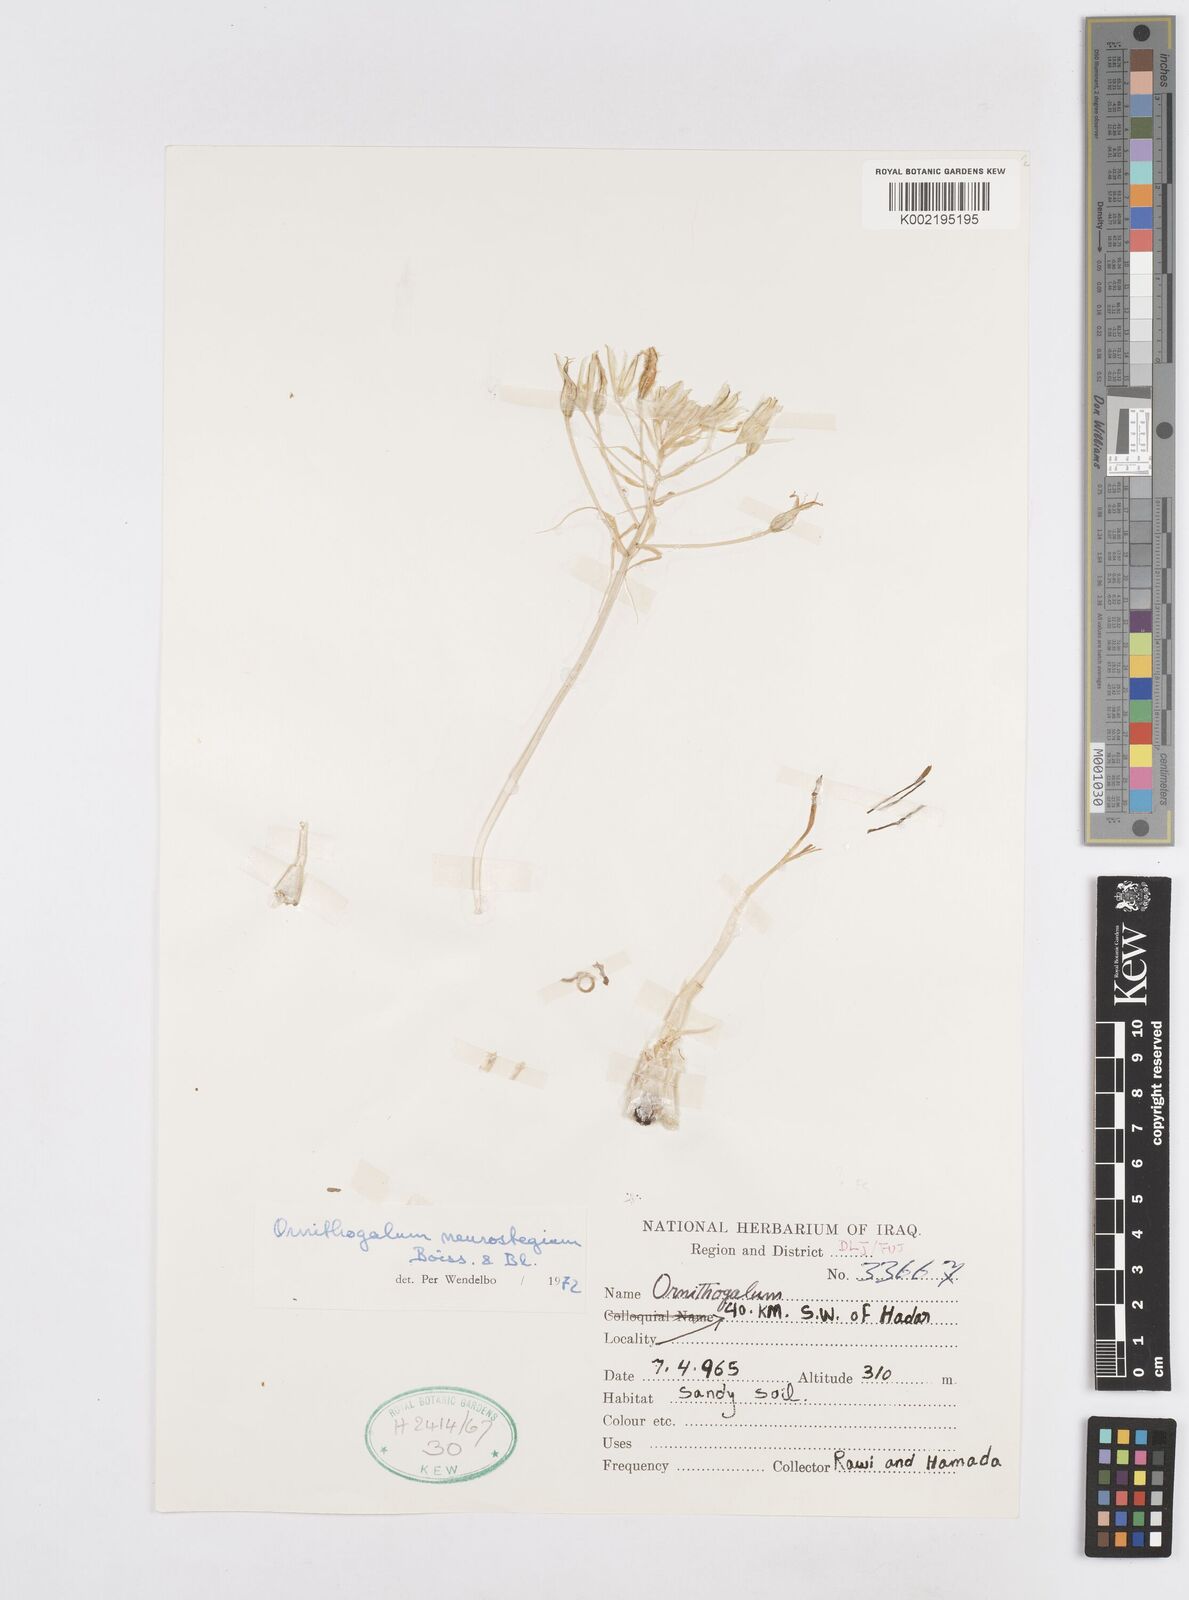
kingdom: Plantae
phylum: Tracheophyta
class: Liliopsida
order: Asparagales
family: Asparagaceae
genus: Ornithogalum
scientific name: Ornithogalum neurostegium
